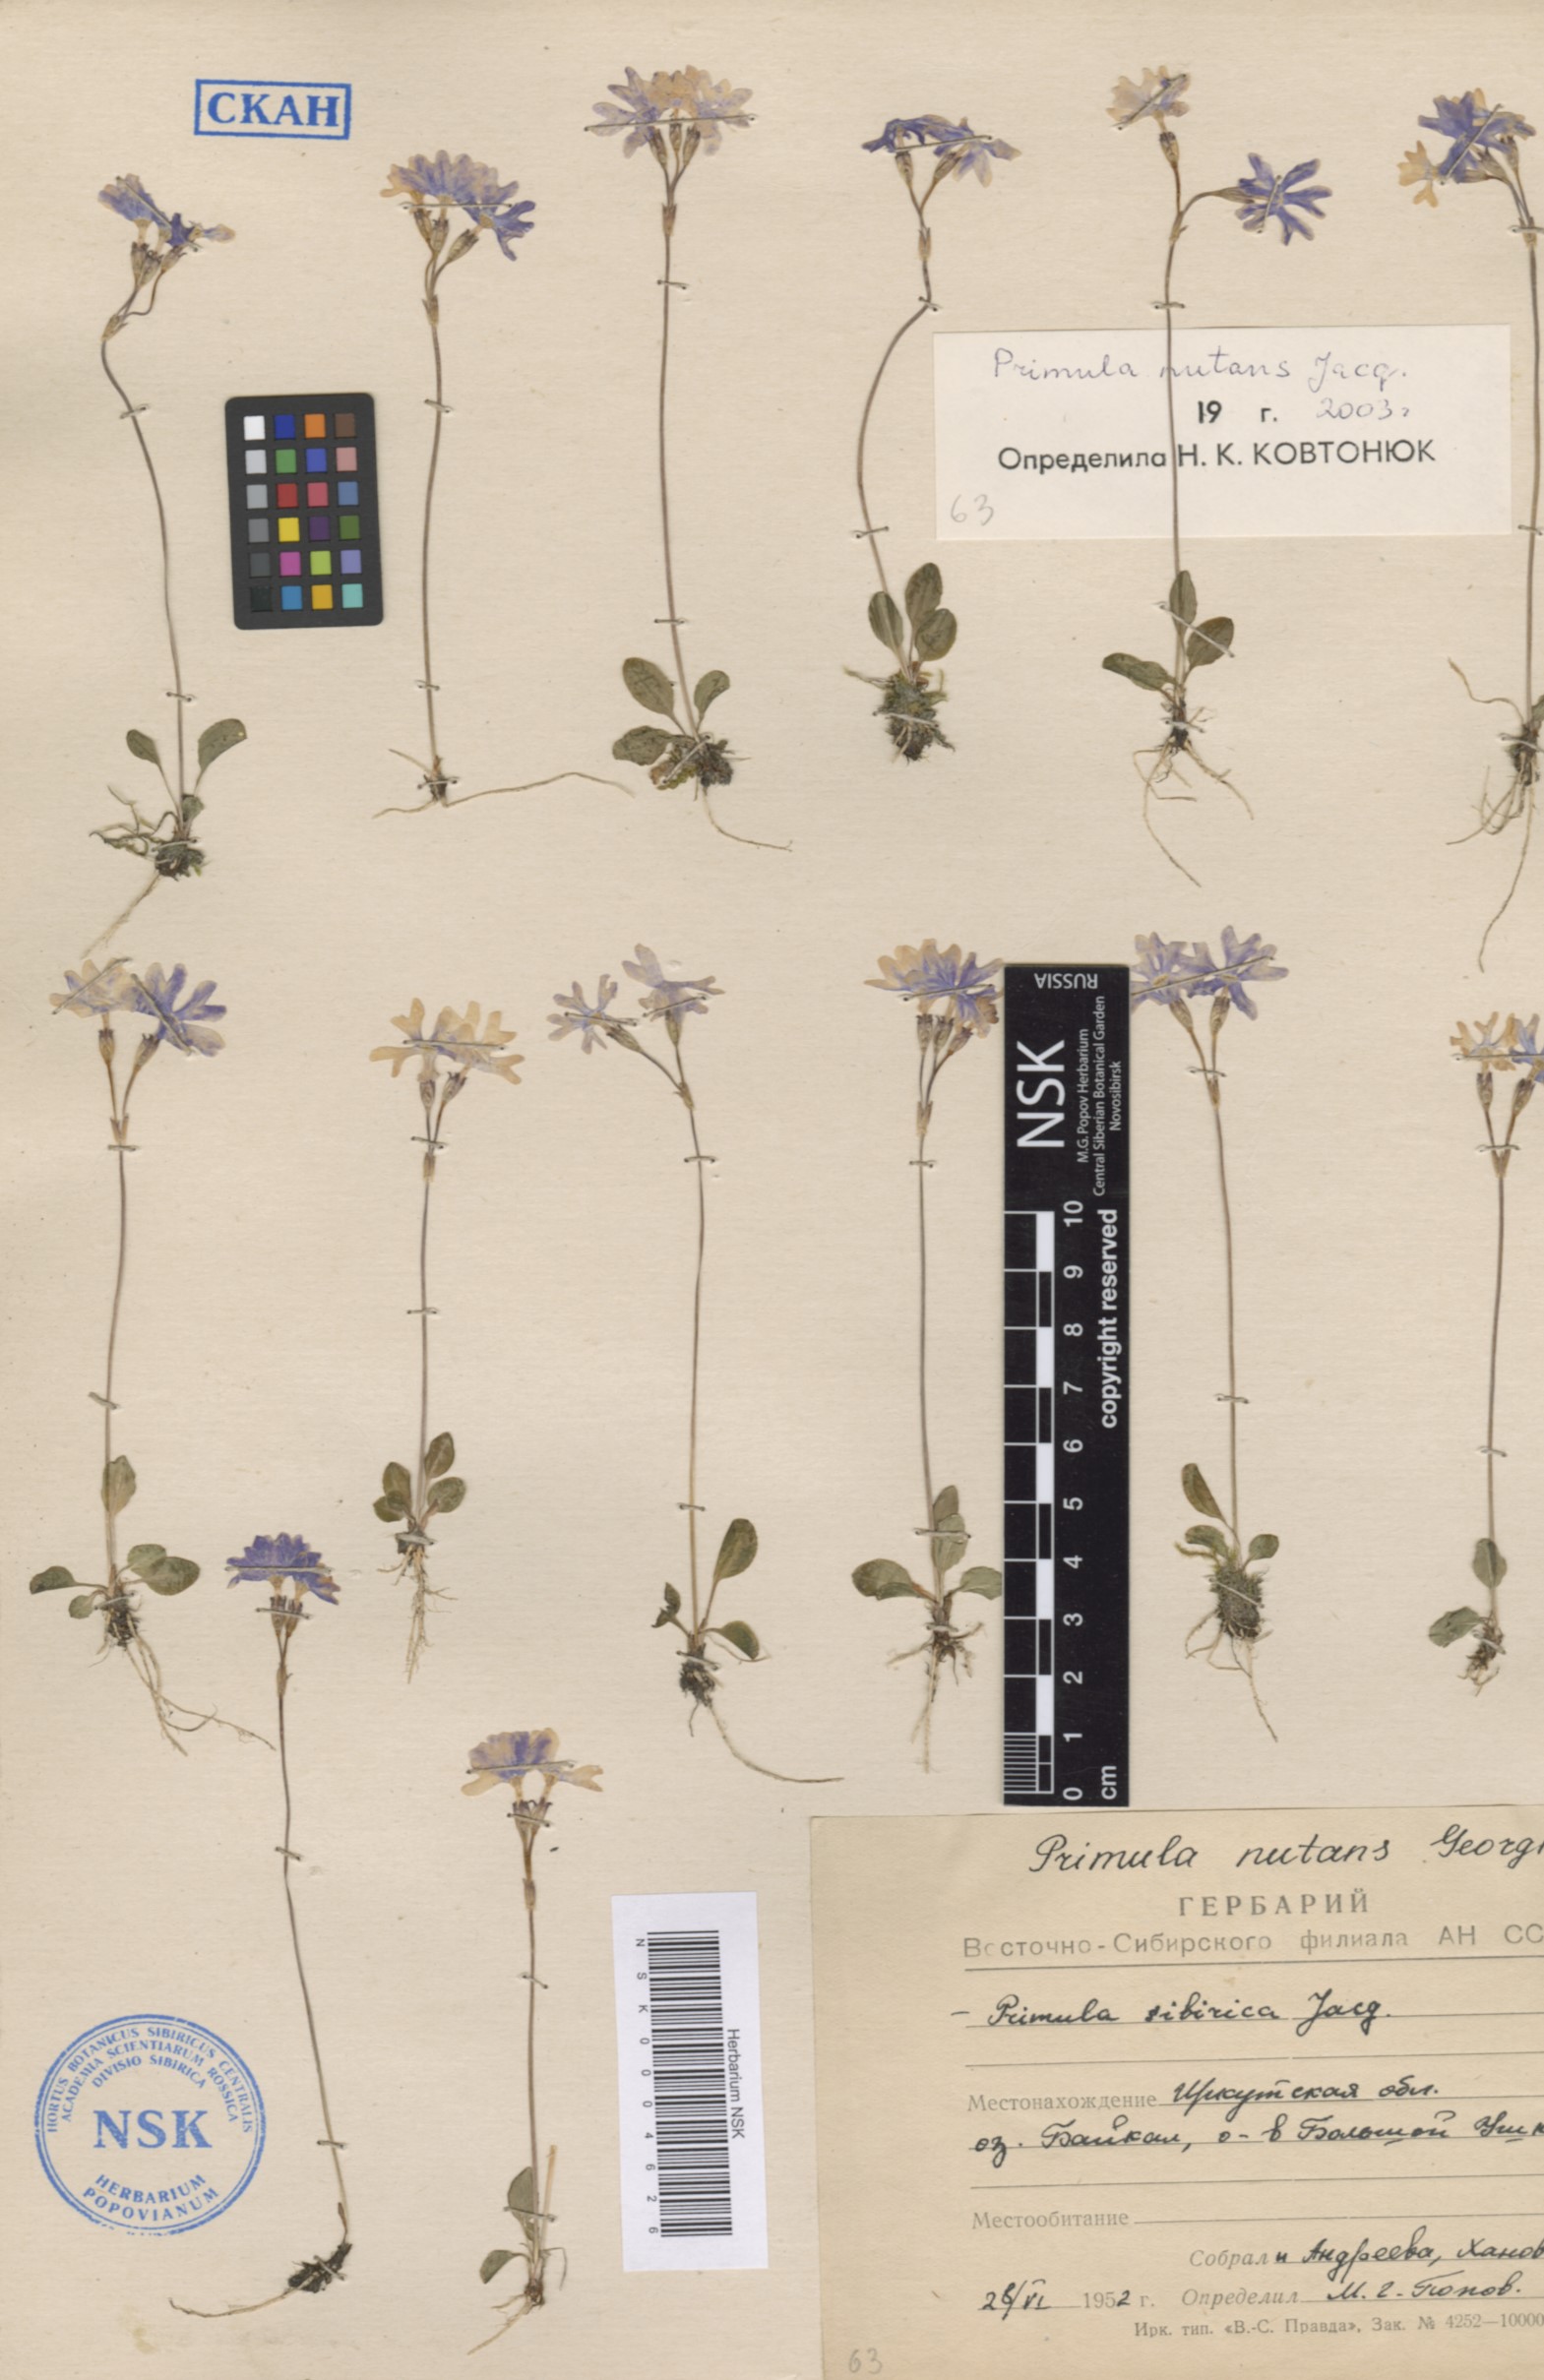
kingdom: Plantae
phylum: Tracheophyta
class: Magnoliopsida
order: Ericales
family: Primulaceae
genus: Primula
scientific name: Primula nutans
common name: Siberian primrose
